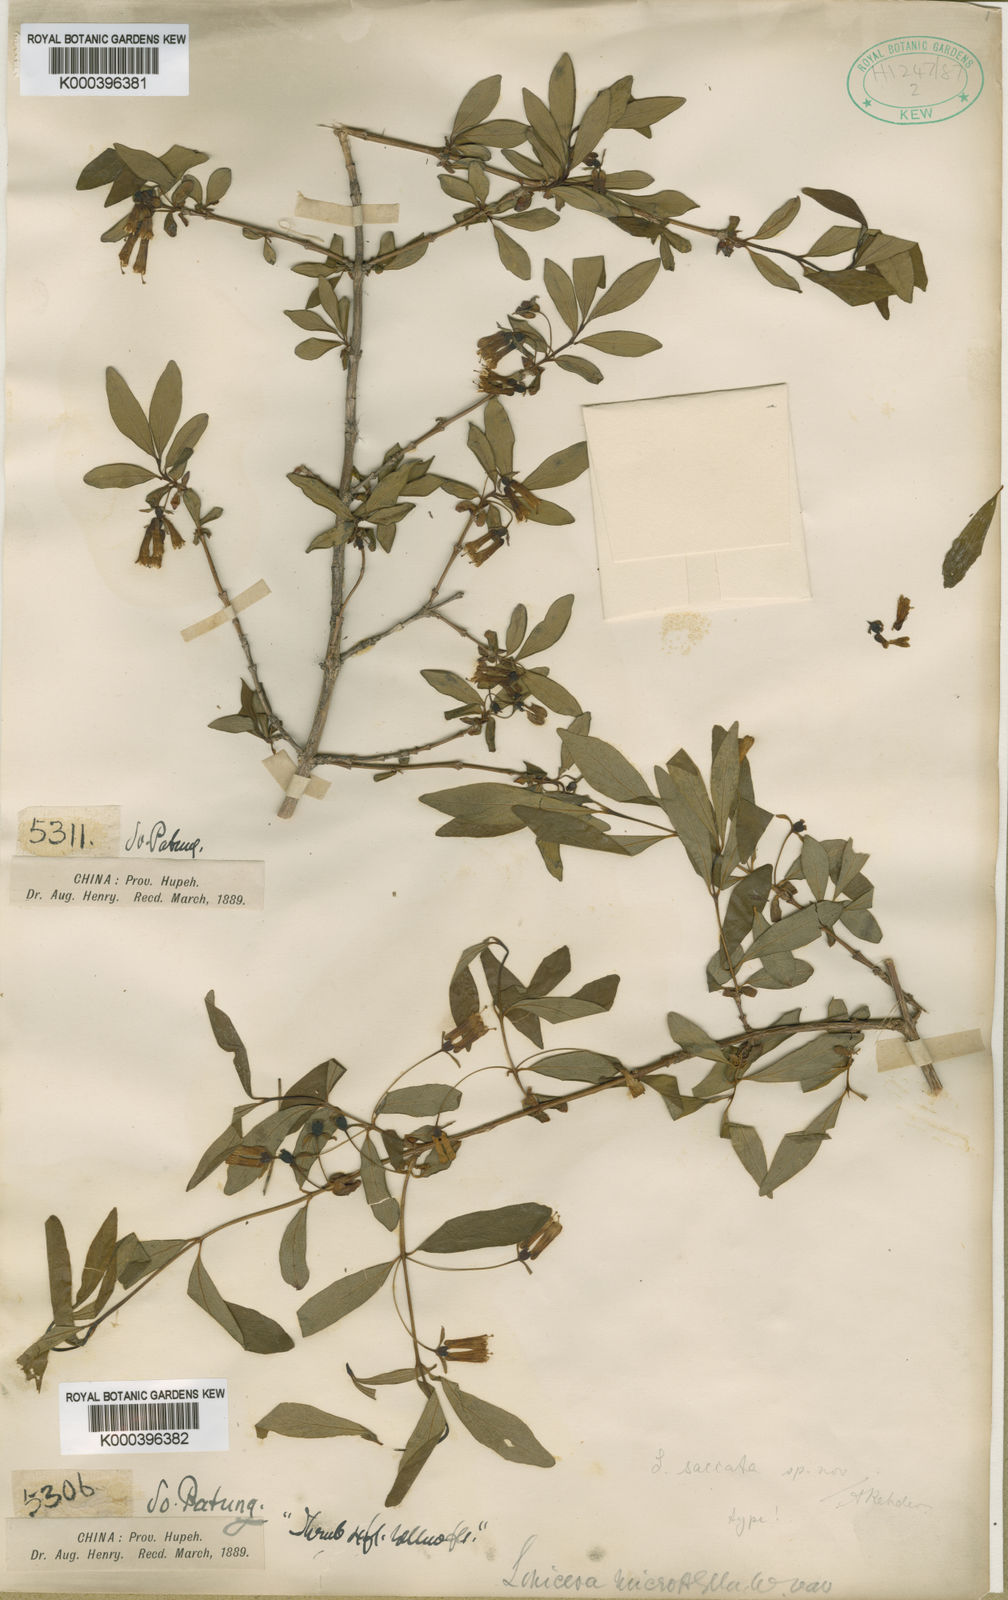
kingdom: Plantae
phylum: Tracheophyta
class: Magnoliopsida
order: Dipsacales
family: Caprifoliaceae
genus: Lonicera
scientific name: Lonicera tangutica
